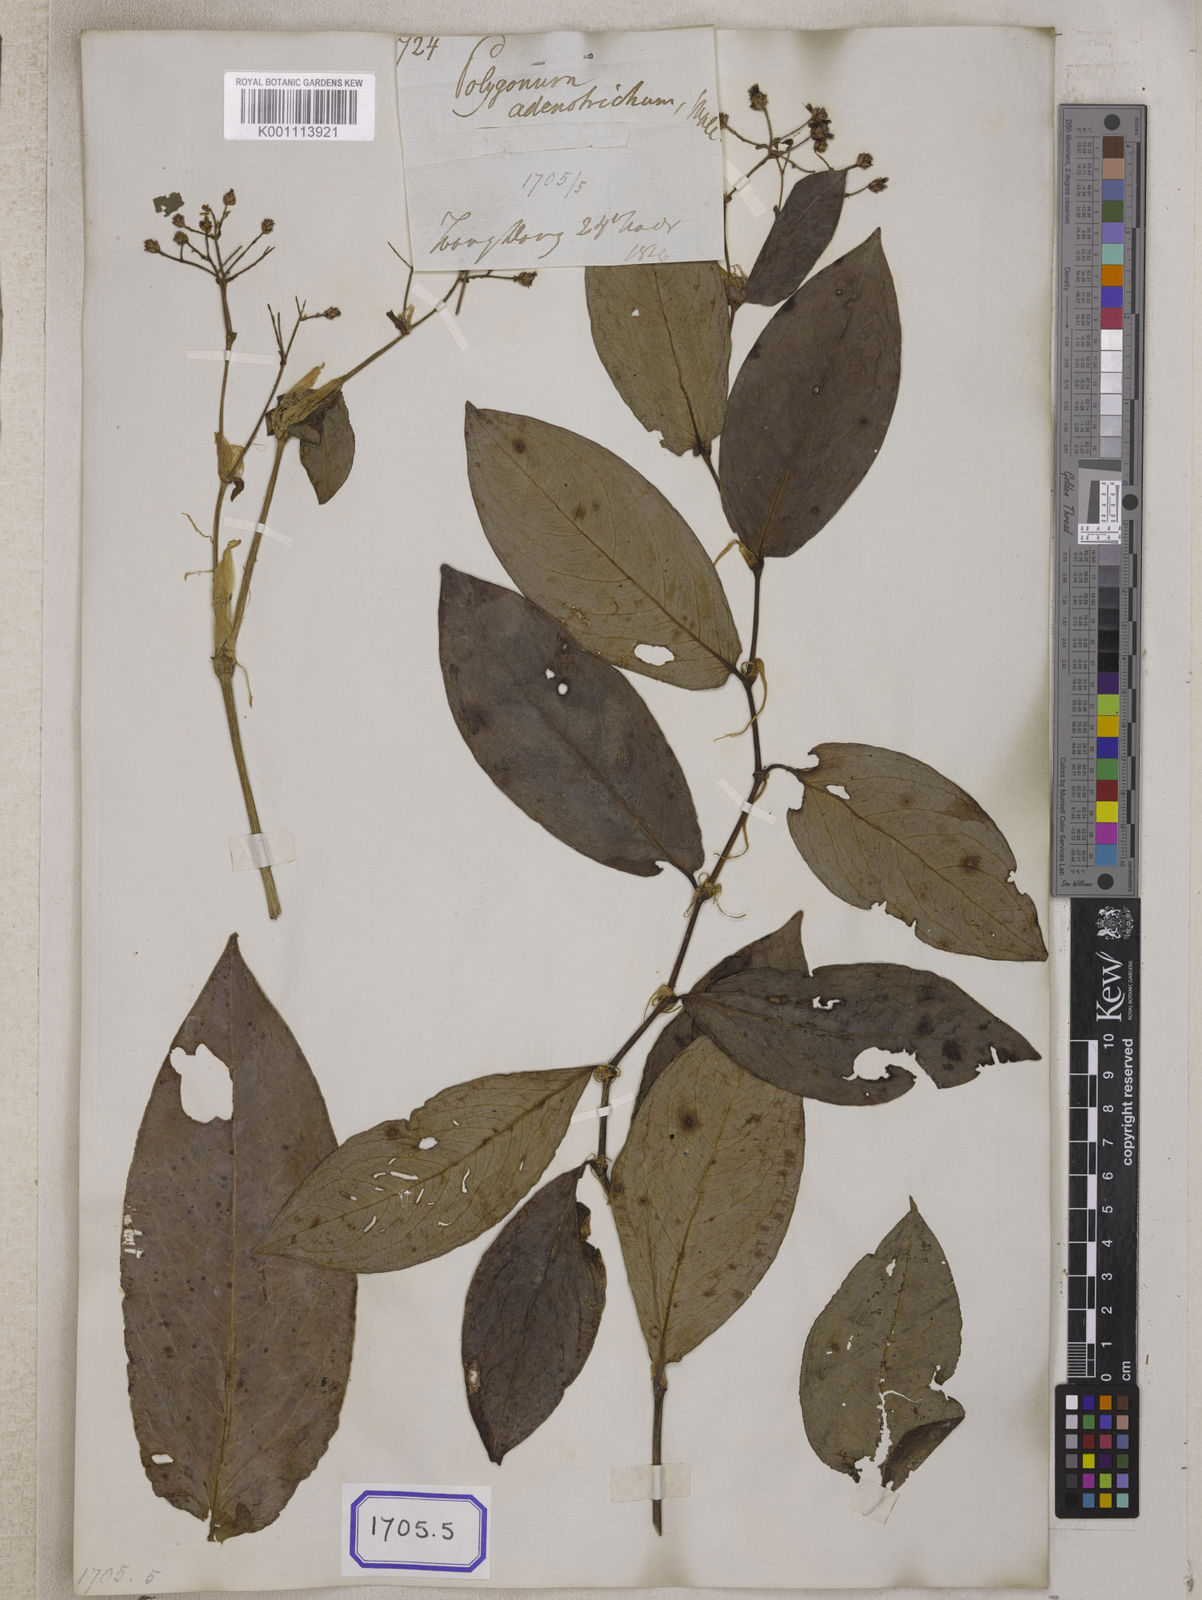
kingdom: Plantae
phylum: Tracheophyta
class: Magnoliopsida
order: Caryophyllales
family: Polygonaceae
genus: Persicaria
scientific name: Persicaria chinensis
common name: Chinese knotweed
